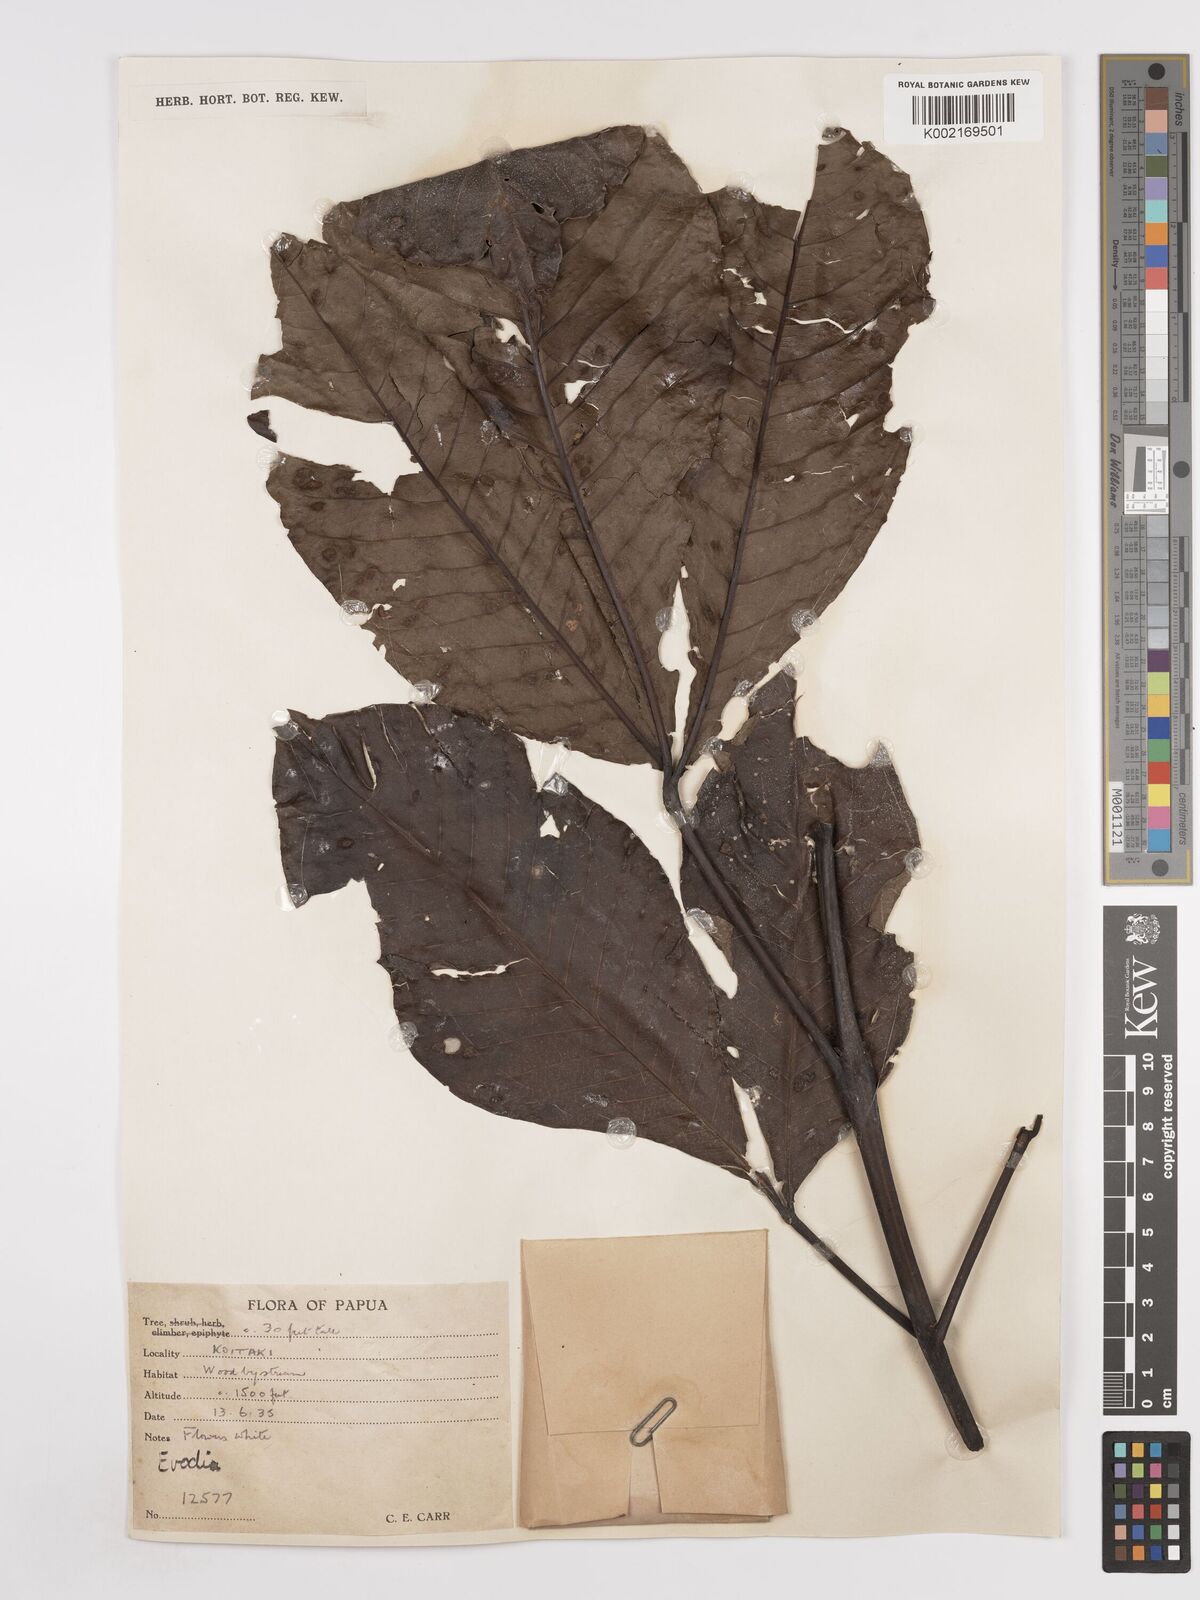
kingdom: Plantae
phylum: Tracheophyta
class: Magnoliopsida
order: Sapindales
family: Rutaceae
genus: Euodia
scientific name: Euodia
